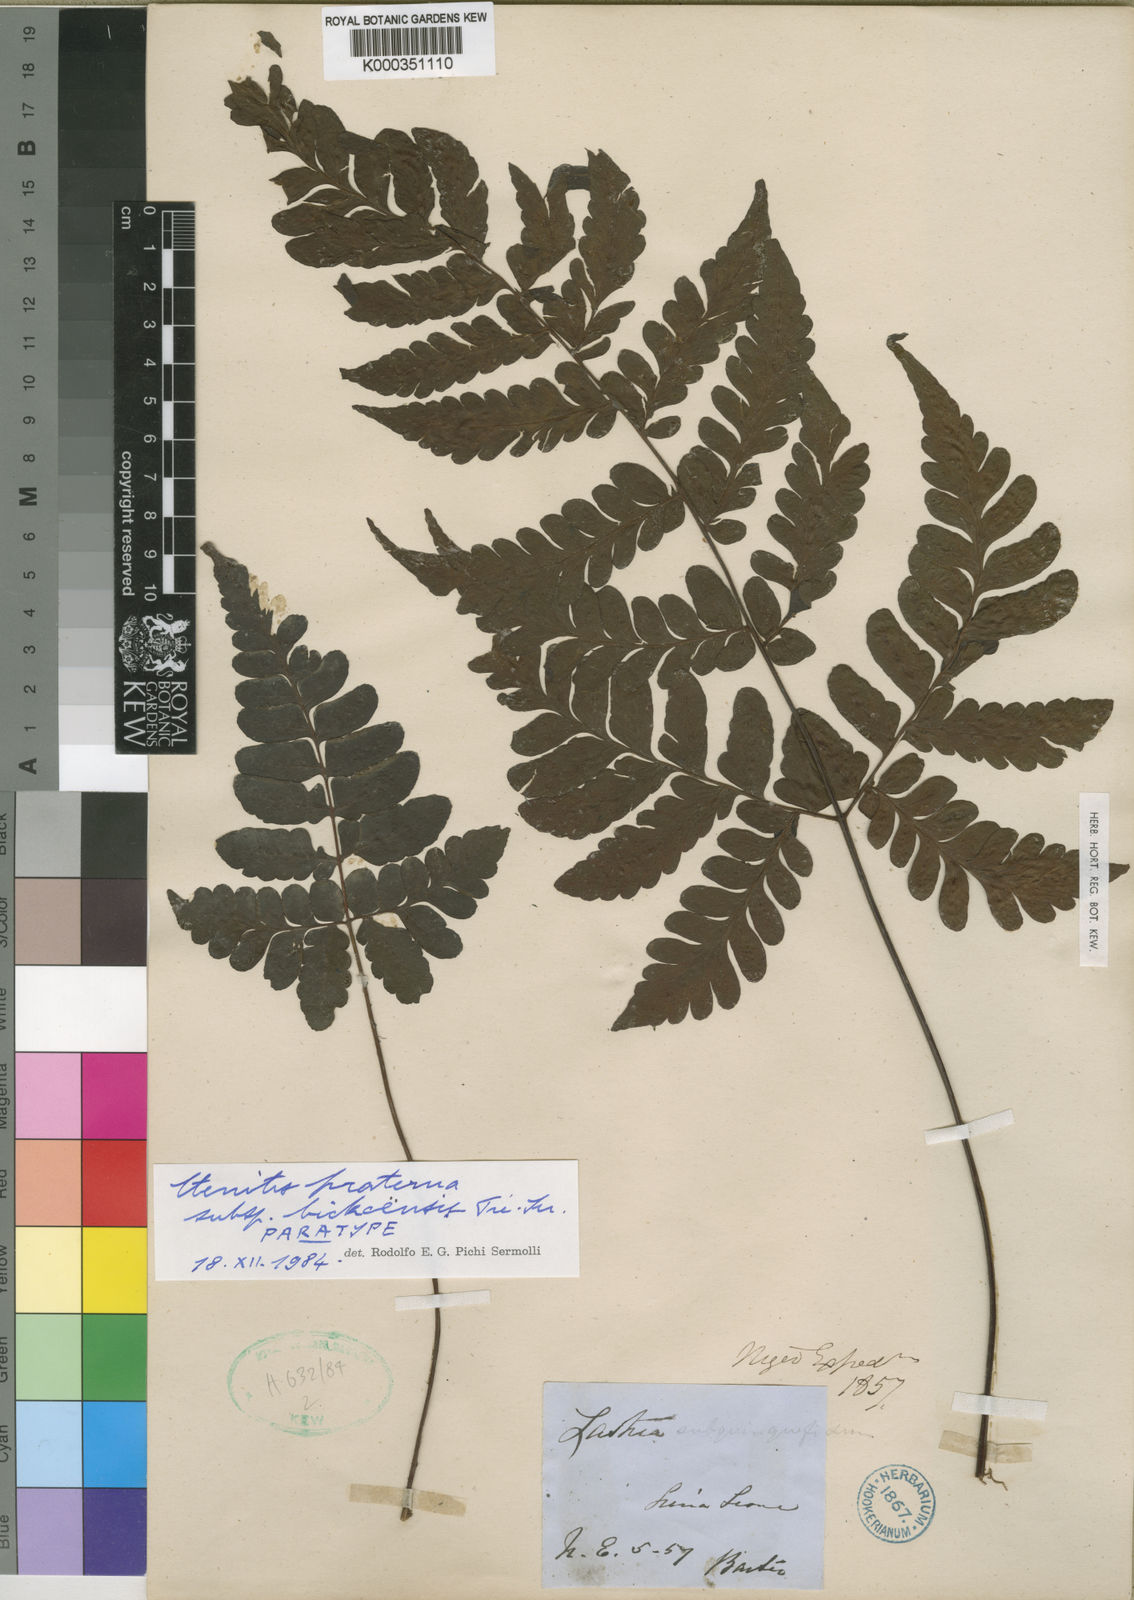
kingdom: Plantae
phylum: Tracheophyta
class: Polypodiopsida
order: Polypodiales
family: Tectariaceae
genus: Triplophyllum
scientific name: Triplophyllum gabonense
